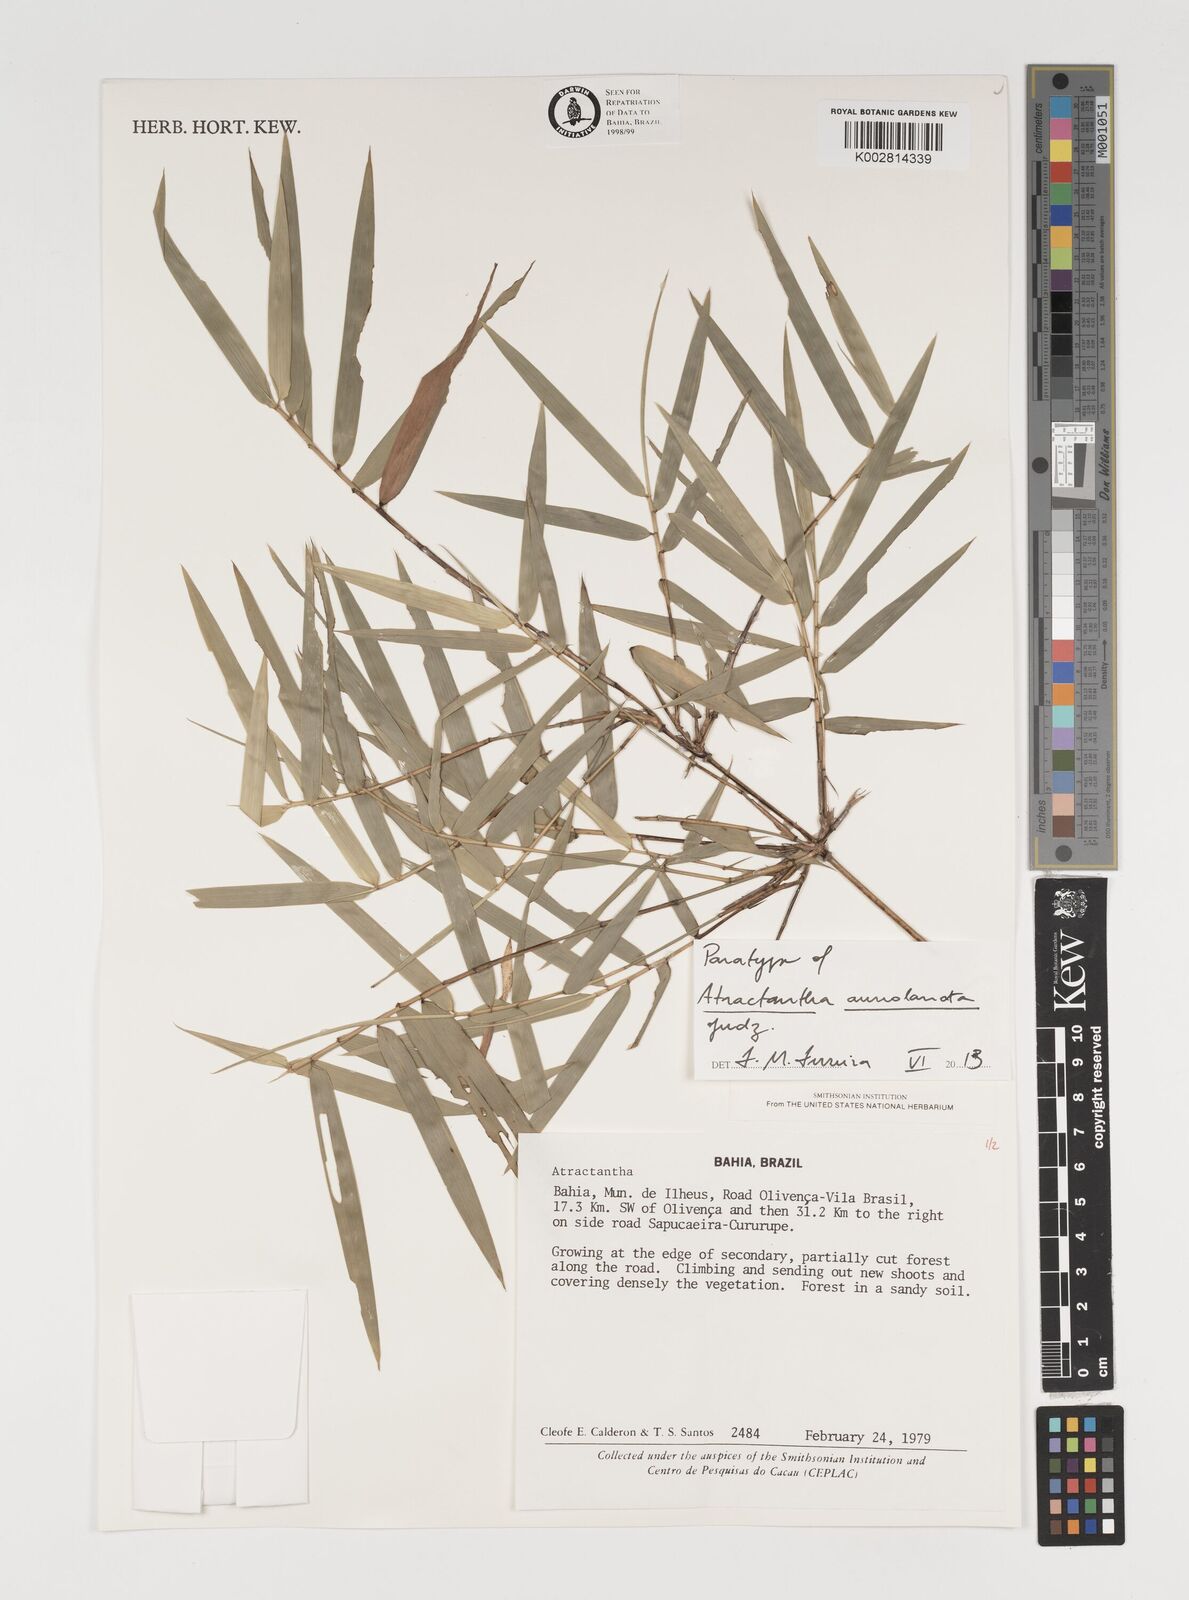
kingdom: Plantae
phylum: Tracheophyta
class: Liliopsida
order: Poales
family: Poaceae
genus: Atractantha
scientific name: Atractantha aureolanata
